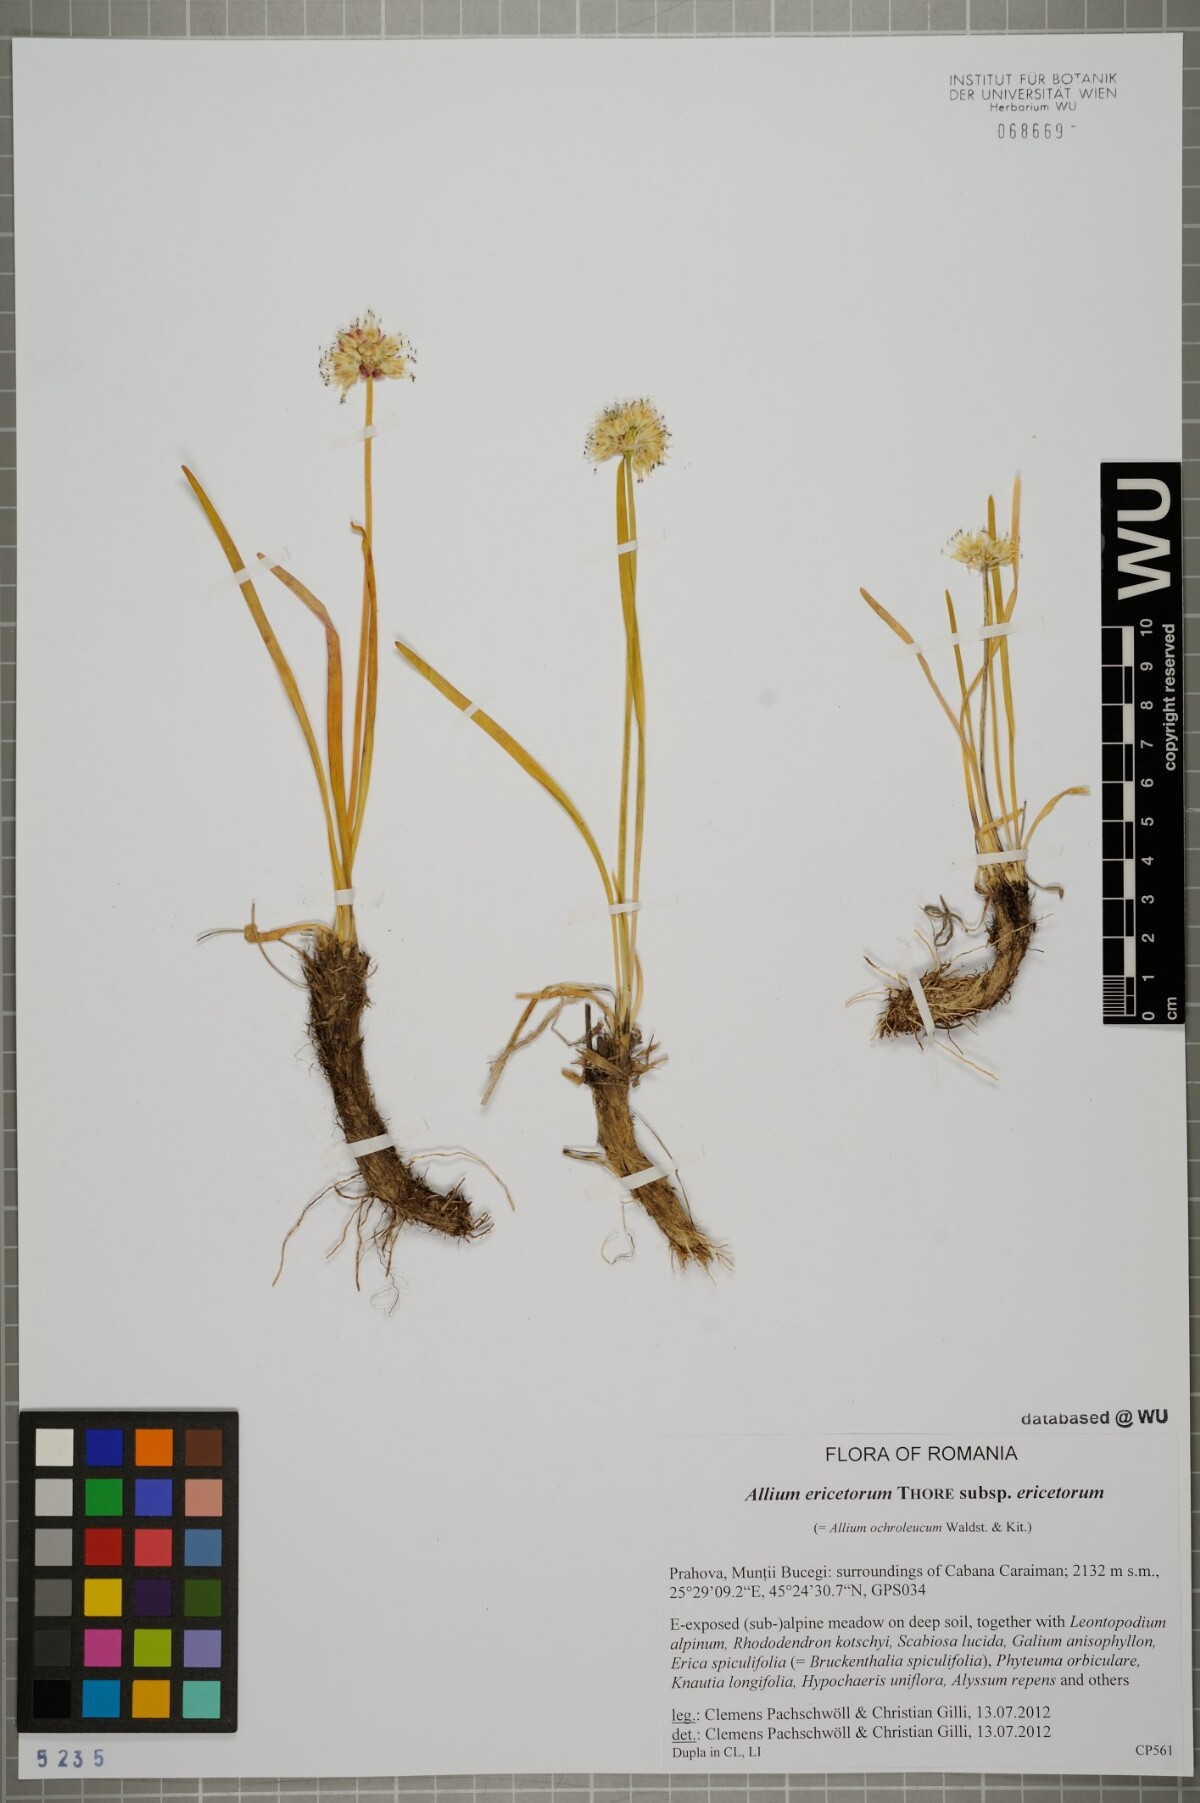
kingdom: Plantae
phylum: Tracheophyta
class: Liliopsida
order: Asparagales
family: Amaryllidaceae
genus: Allium
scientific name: Allium ericetorum
